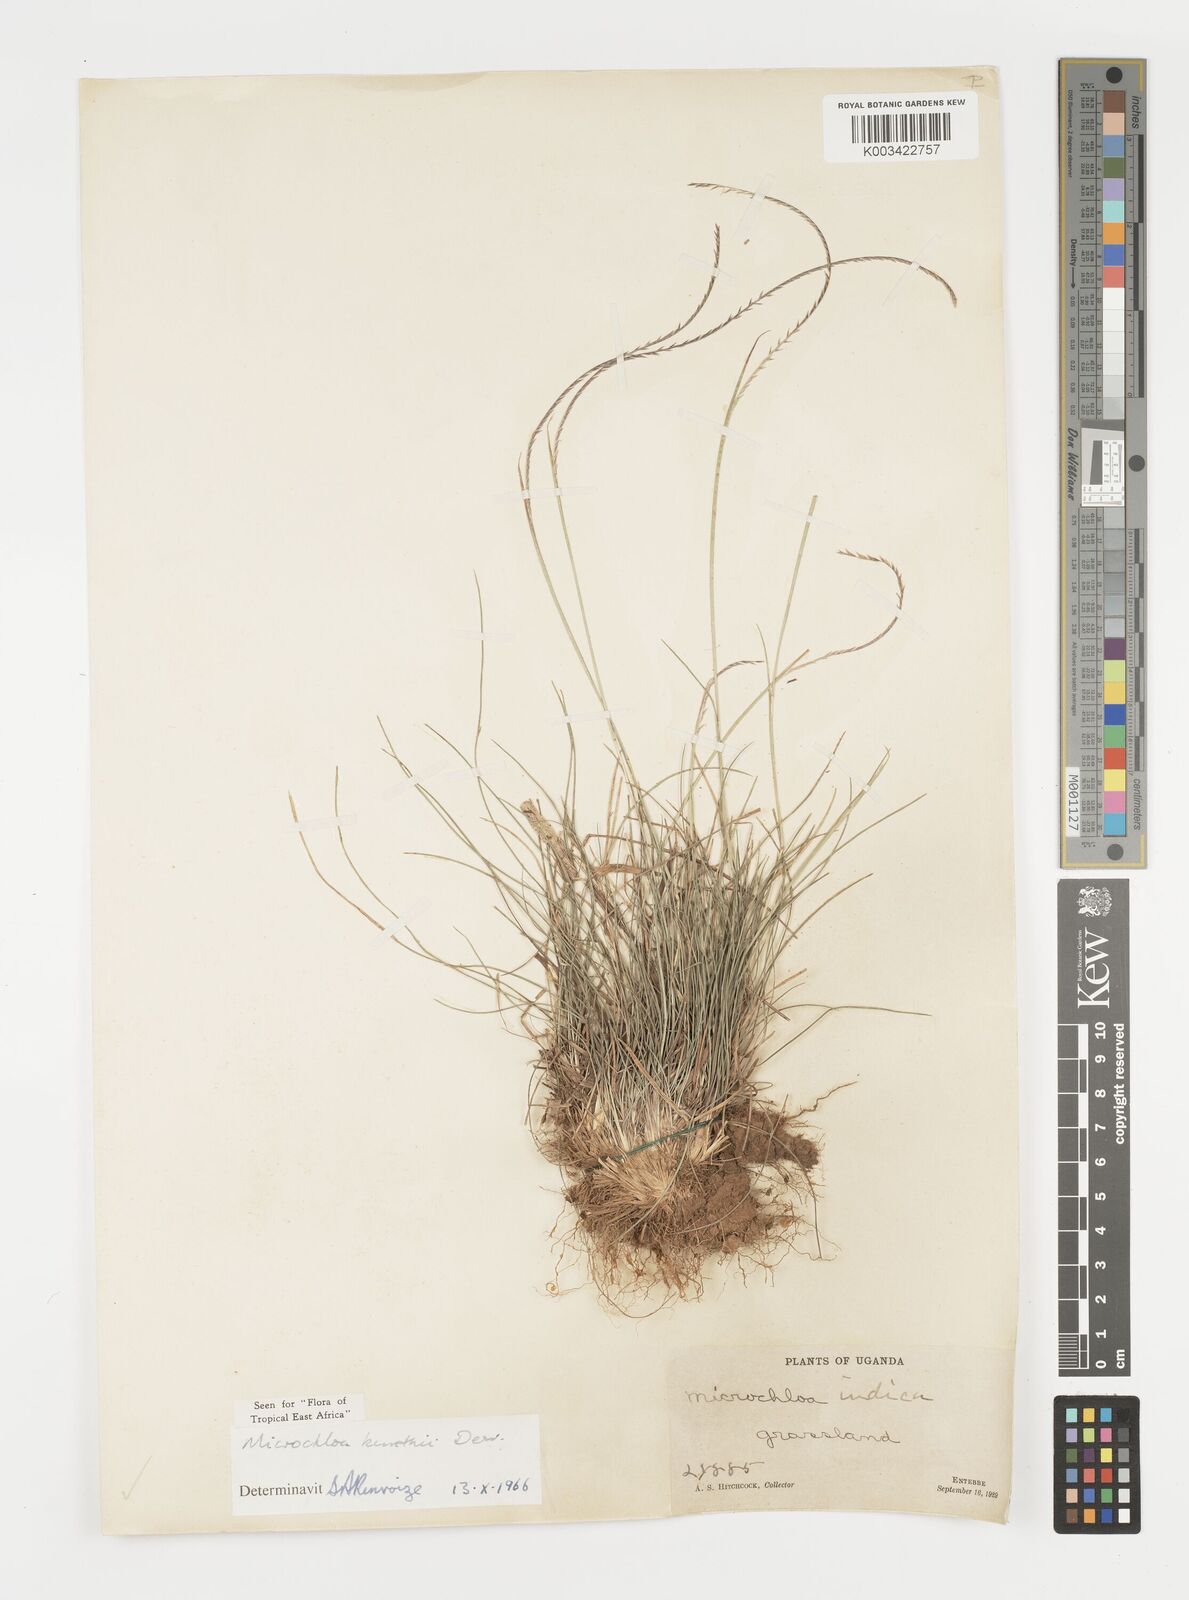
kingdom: Plantae
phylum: Tracheophyta
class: Liliopsida
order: Poales
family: Poaceae
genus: Microchloa
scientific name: Microchloa kunthii
